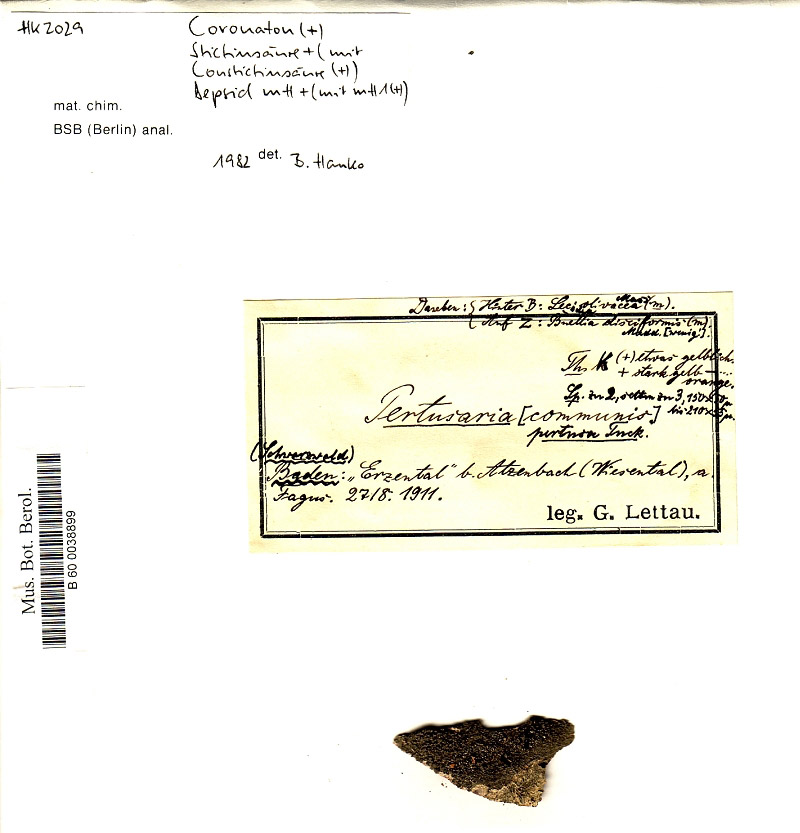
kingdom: Plantae
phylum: Tracheophyta
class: Magnoliopsida
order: Fagales
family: Fagaceae
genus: Fagus
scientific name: Fagus
